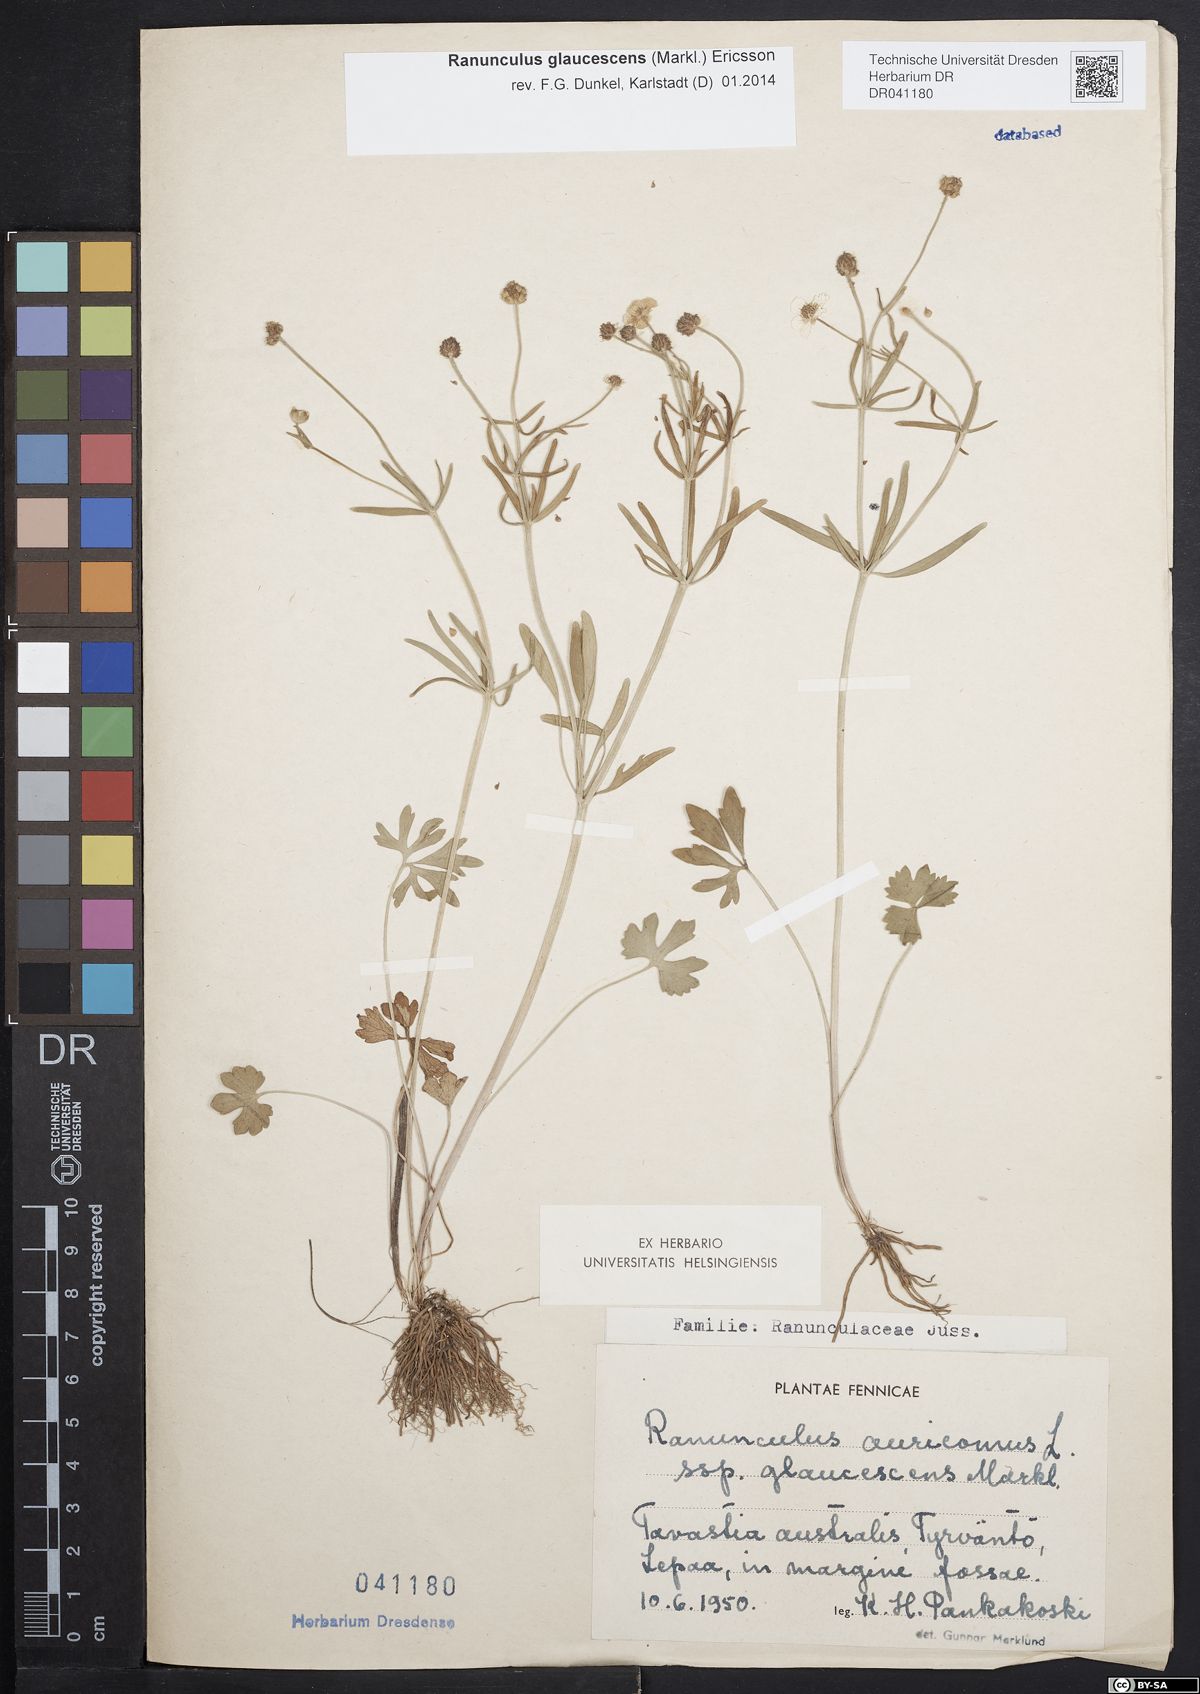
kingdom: Plantae
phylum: Tracheophyta
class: Magnoliopsida
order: Ranunculales
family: Ranunculaceae
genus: Ranunculus
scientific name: Ranunculus glaucescens
